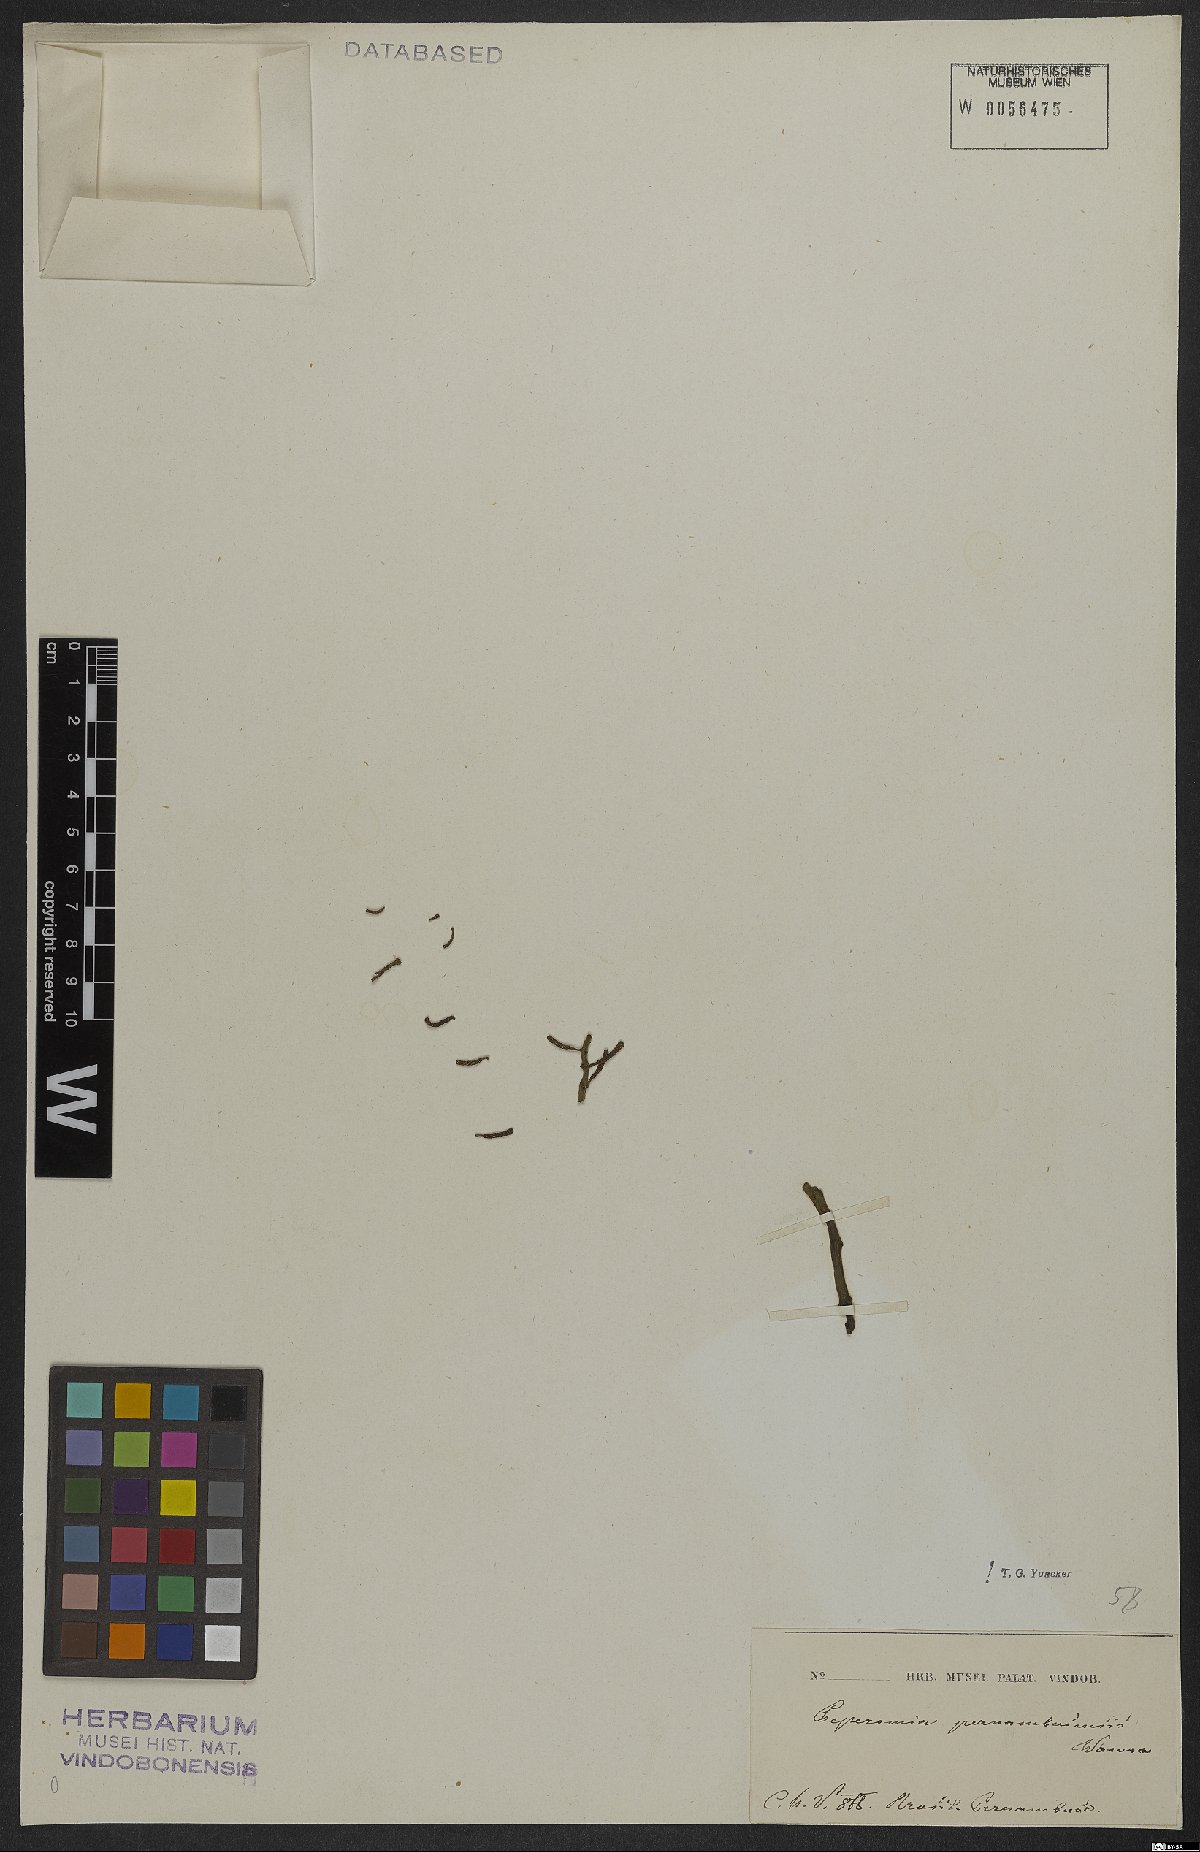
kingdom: Plantae
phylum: Tracheophyta
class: Magnoliopsida
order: Piperales
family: Piperaceae
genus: Peperomia
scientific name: Peperomia pernambucensis
